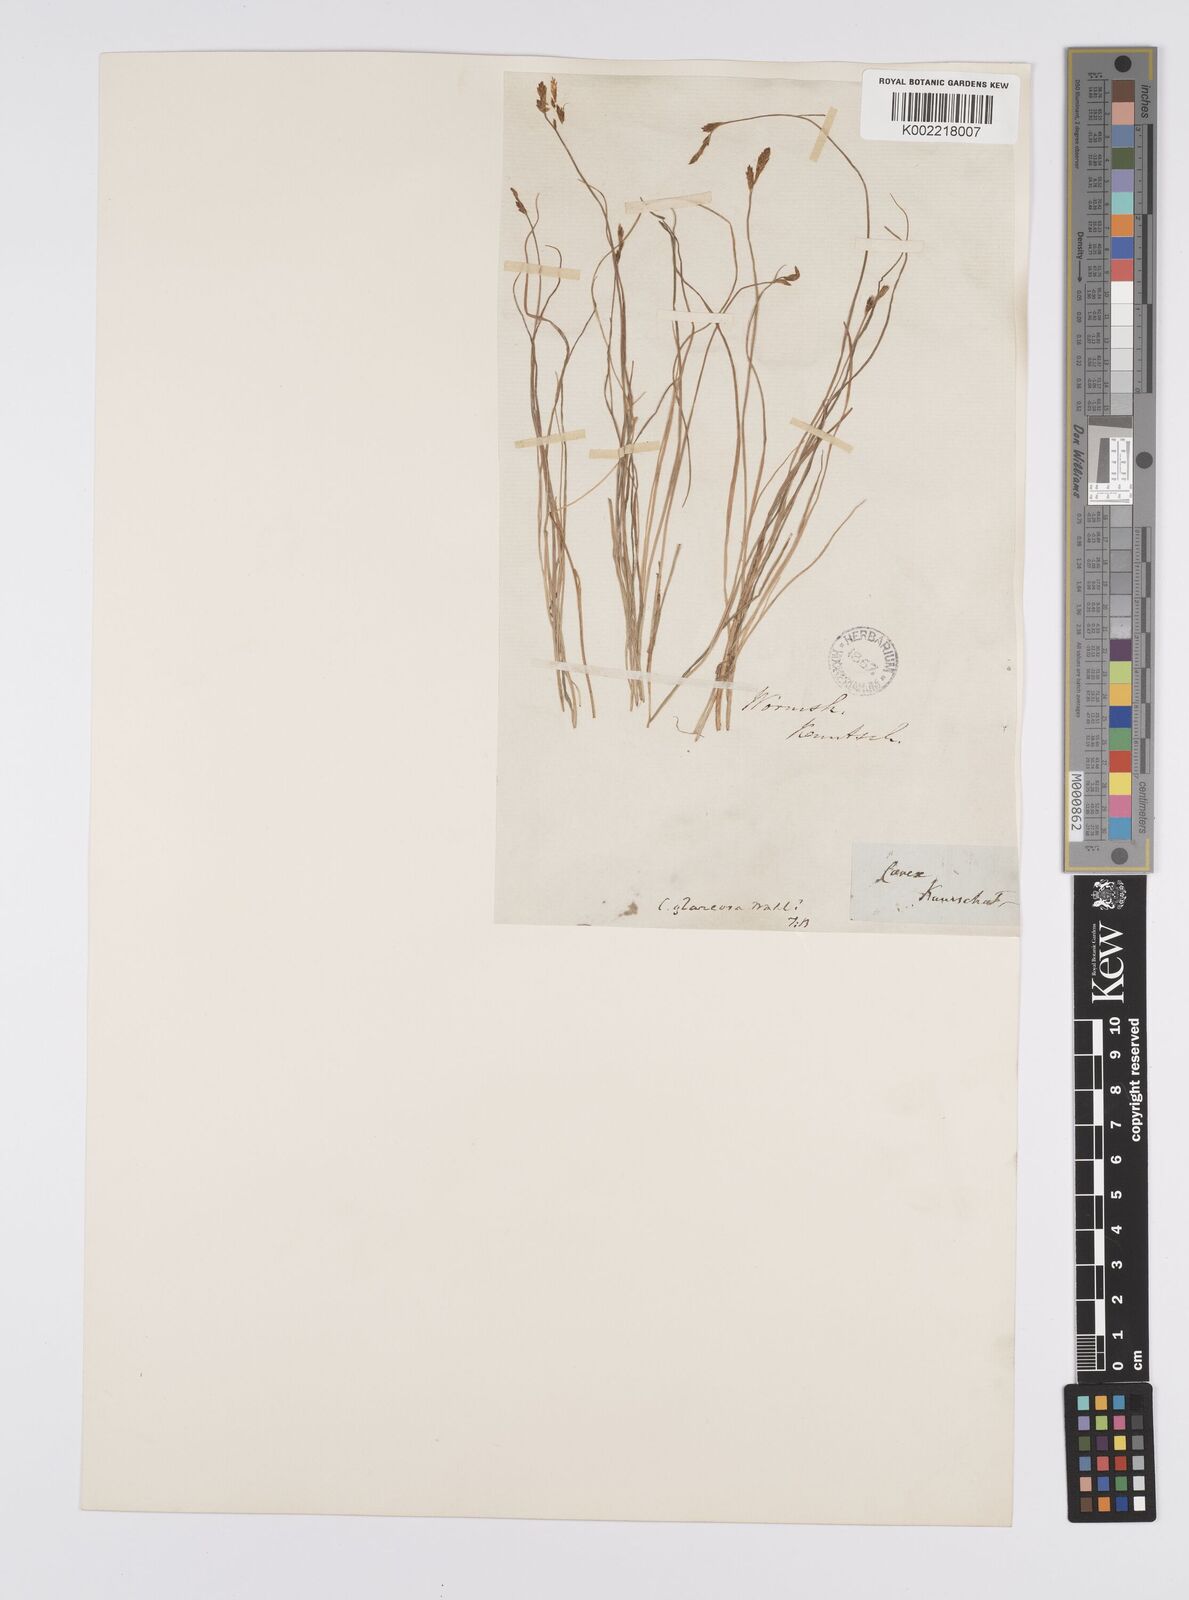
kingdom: Plantae
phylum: Tracheophyta
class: Liliopsida
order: Poales
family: Cyperaceae
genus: Carex
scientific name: Carex glareosa
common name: Clustered sedge
